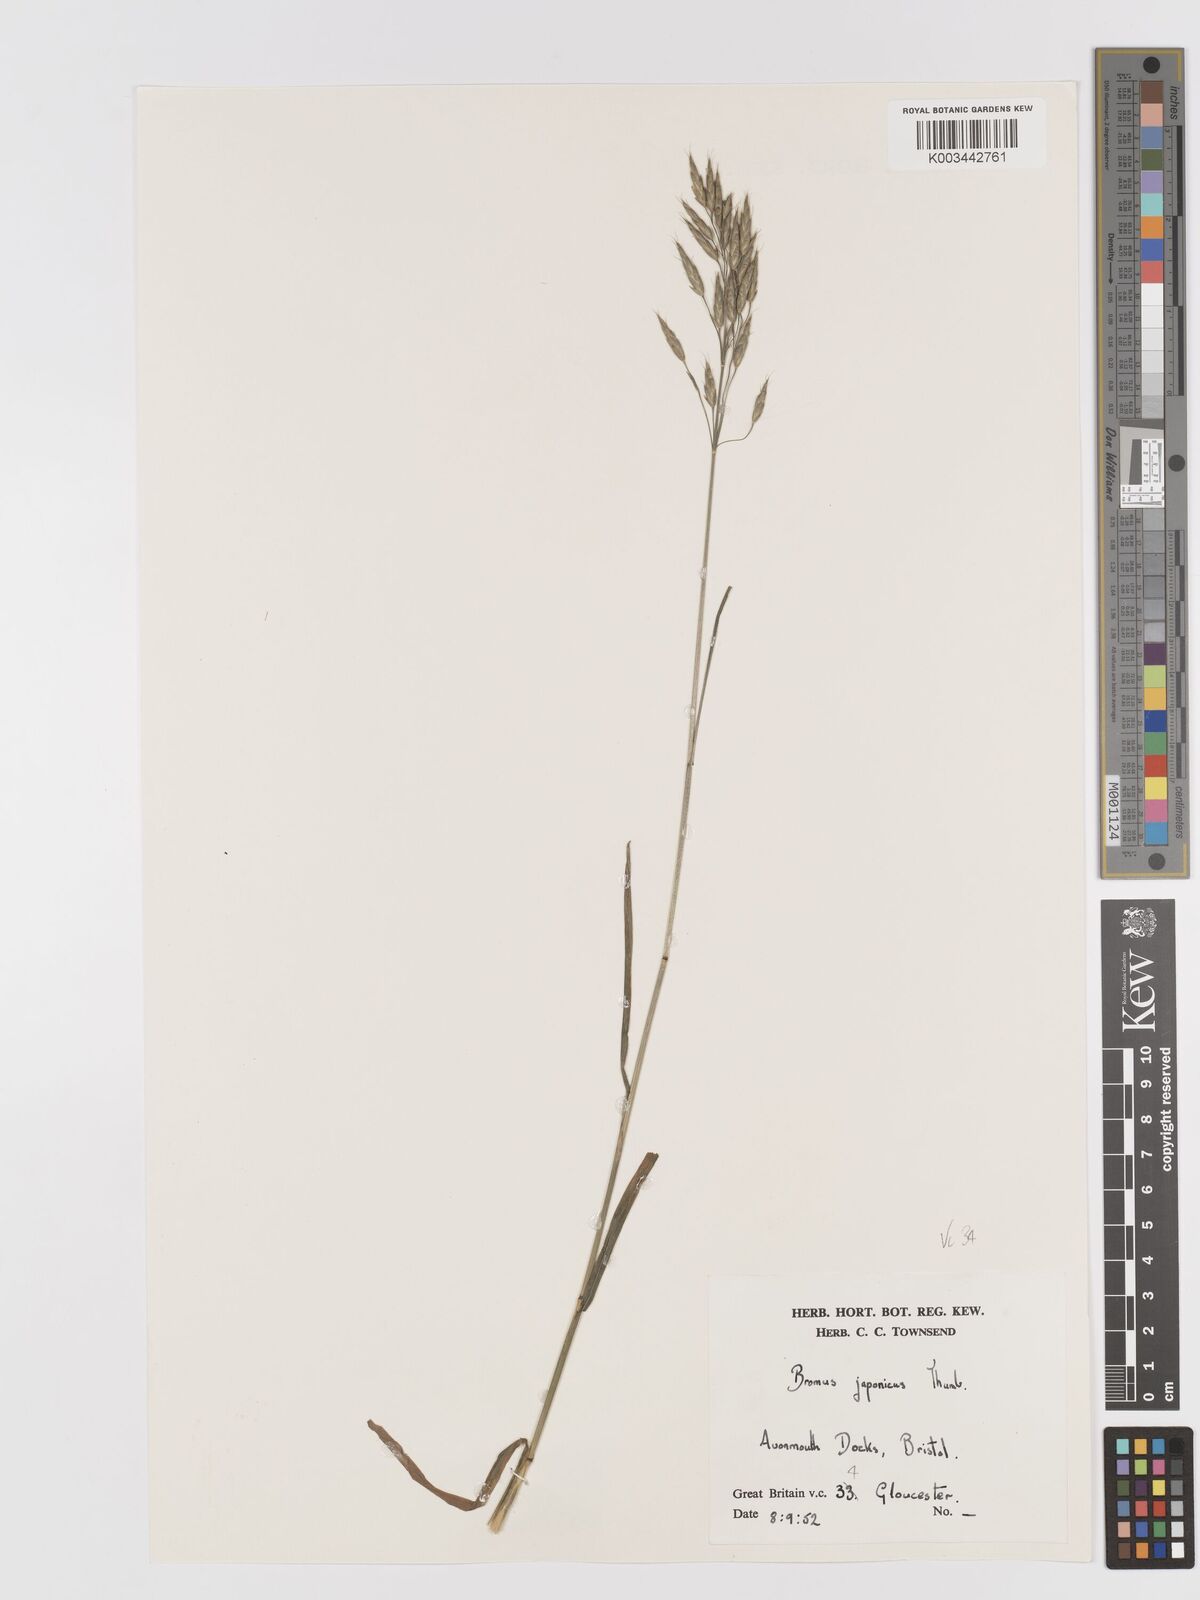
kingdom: Plantae
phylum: Tracheophyta
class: Liliopsida
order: Poales
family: Poaceae
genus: Bromus
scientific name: Bromus japonicus
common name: Japanese brome
